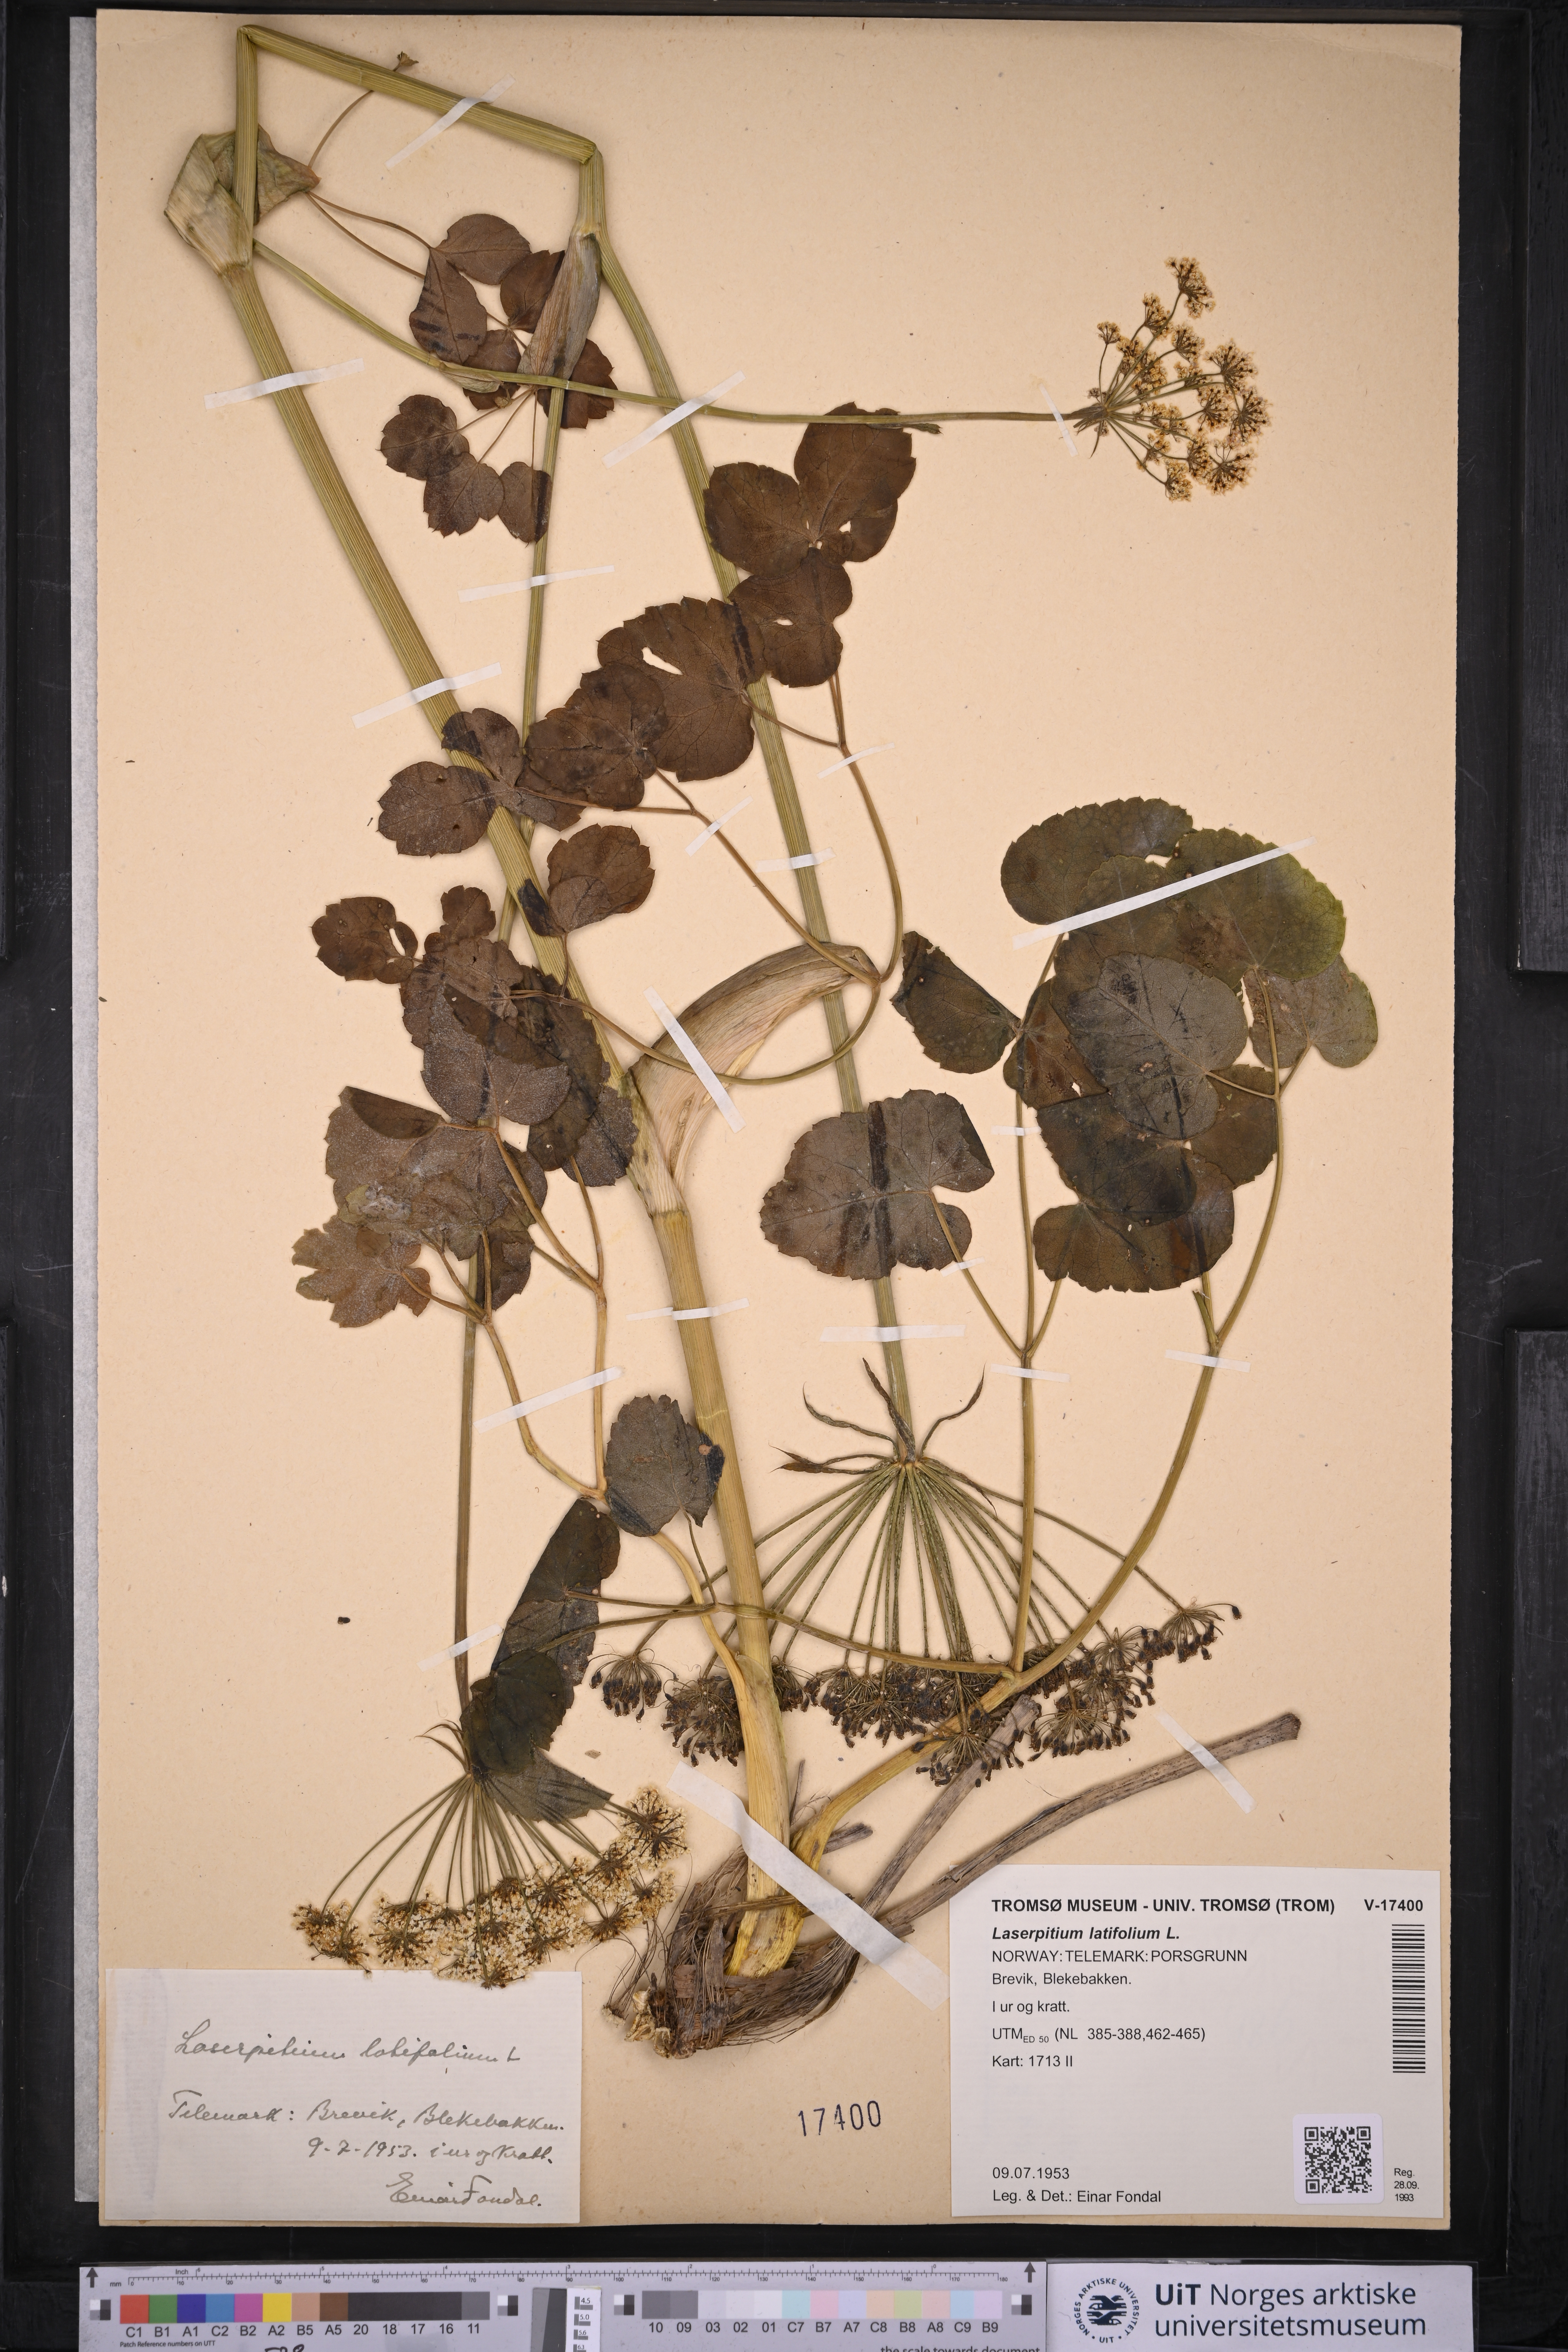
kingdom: Plantae
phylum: Tracheophyta
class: Magnoliopsida
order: Apiales
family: Apiaceae
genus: Laserpitium
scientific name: Laserpitium latifolium
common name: Broadleaf sermountain
